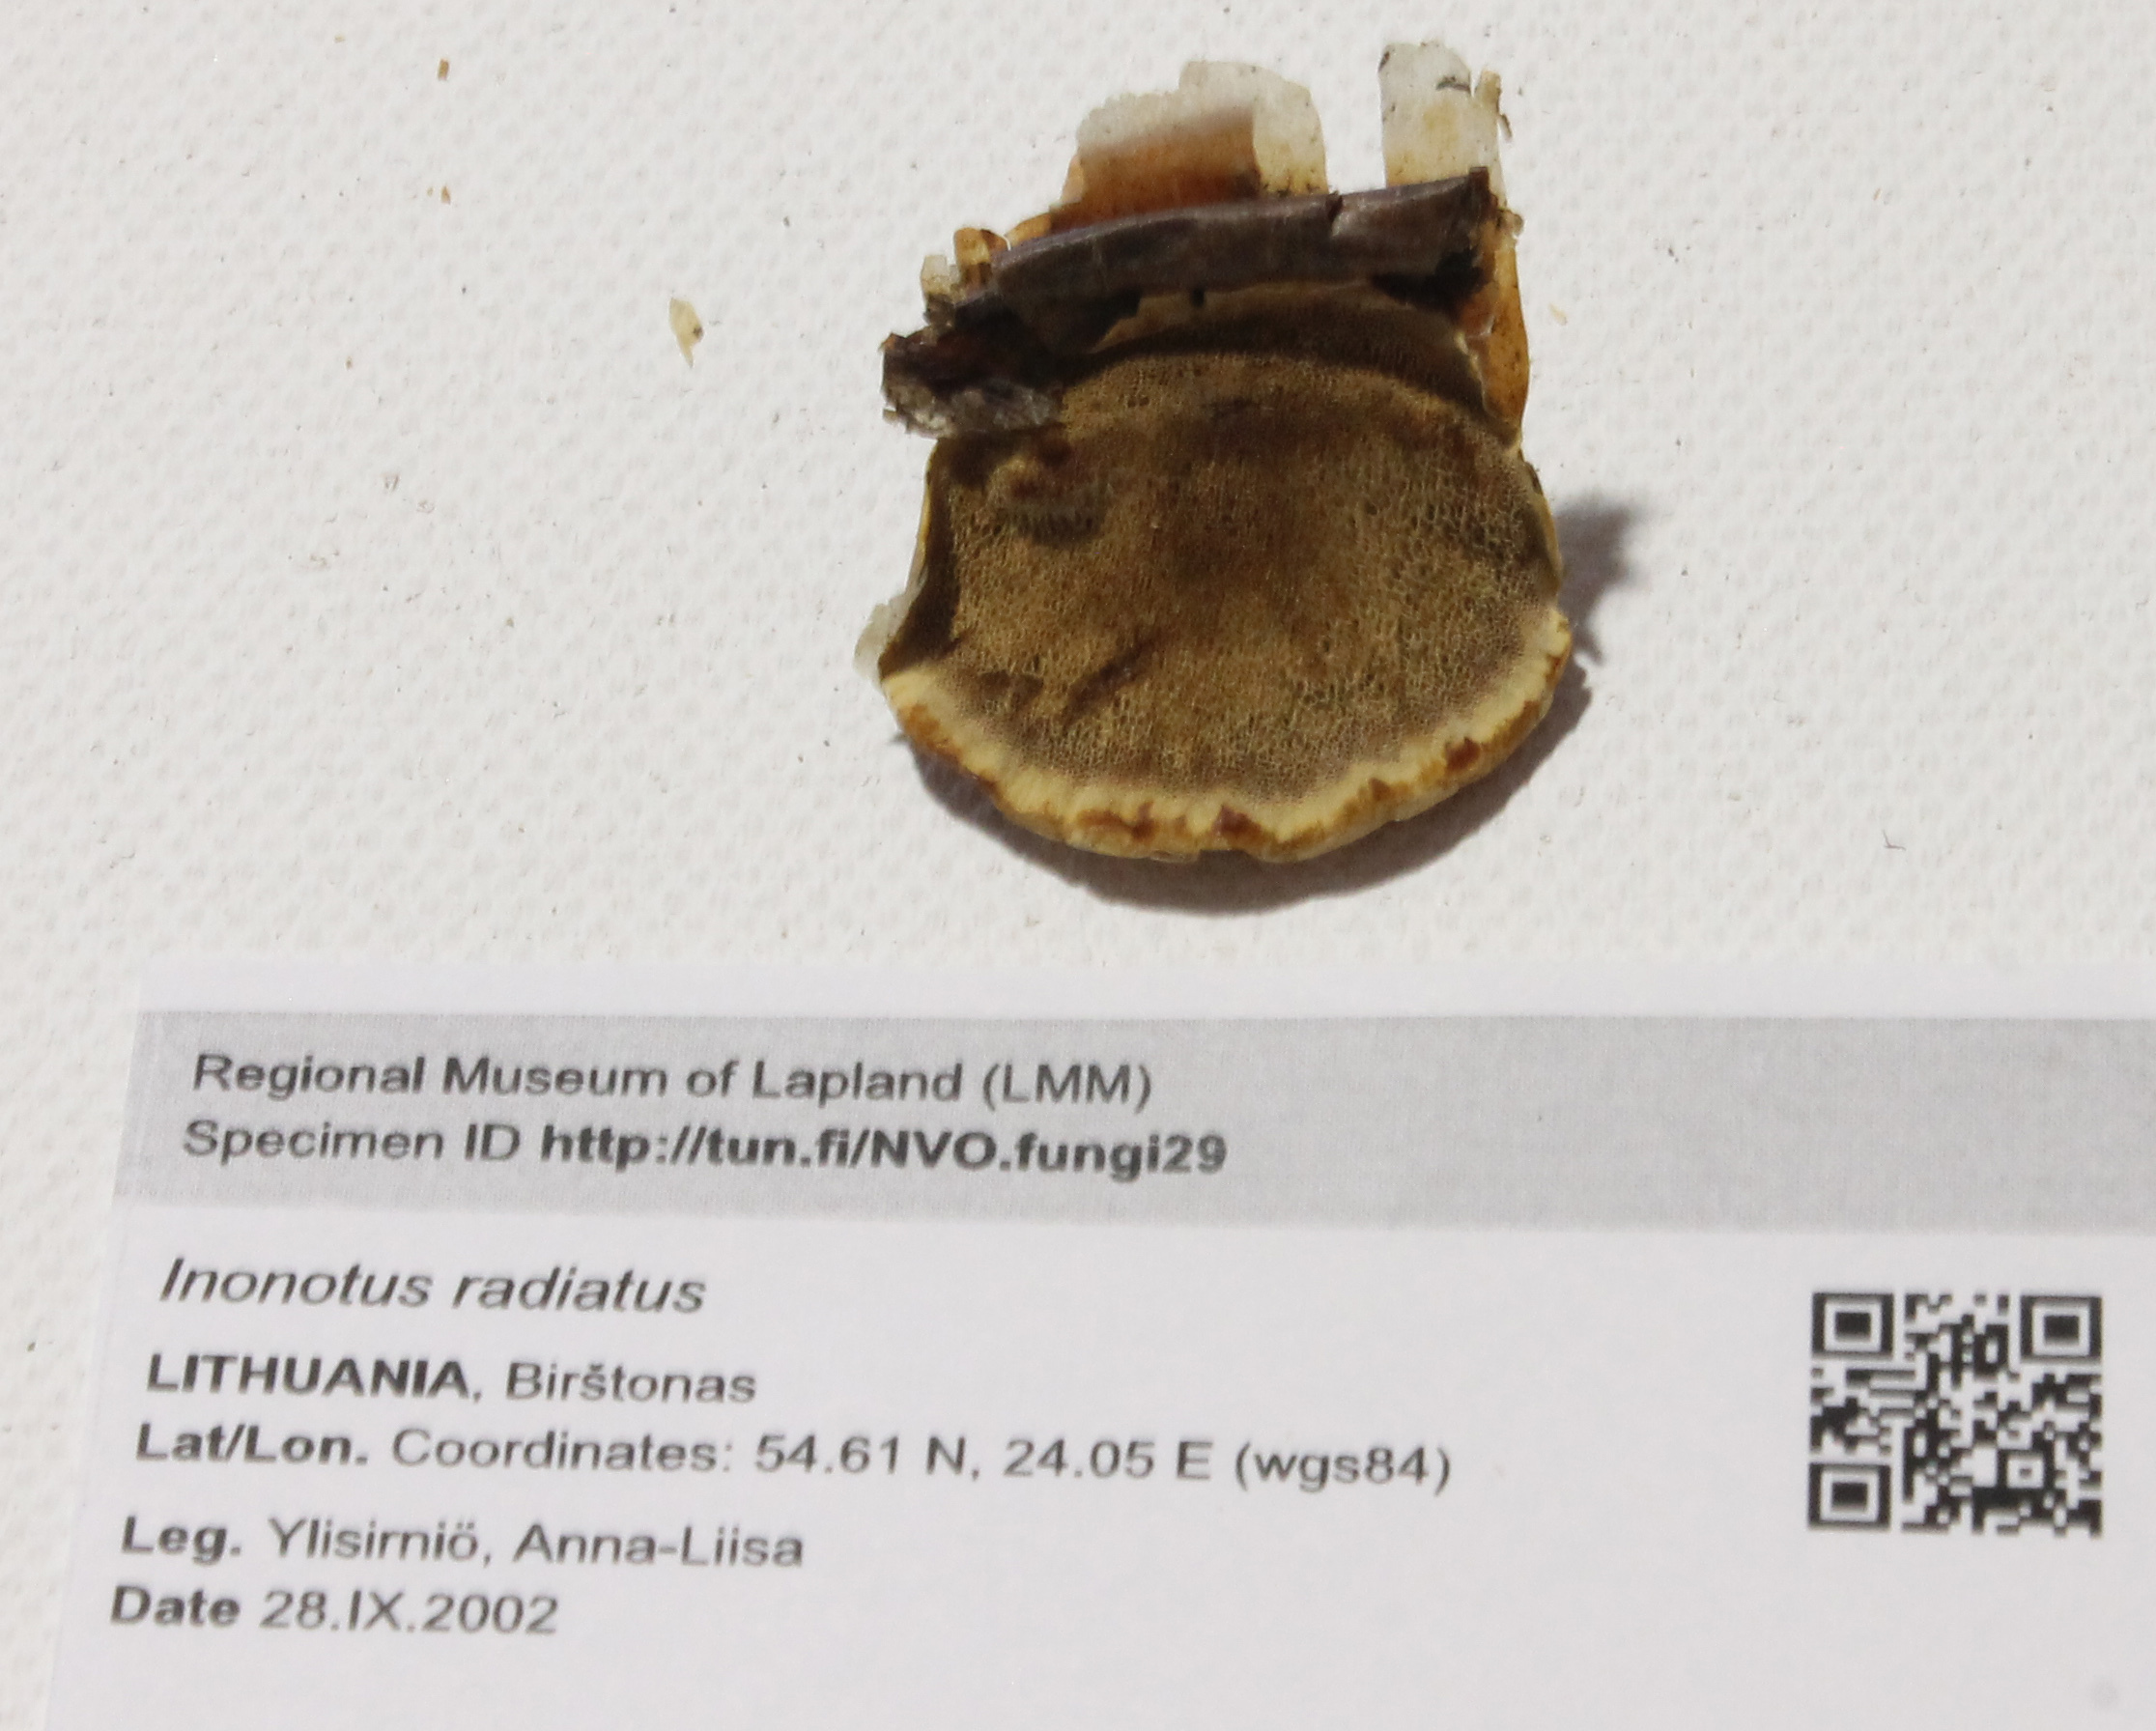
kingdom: Fungi
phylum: Basidiomycota
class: Agaricomycetes
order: Hymenochaetales
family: Hymenochaetaceae
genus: Xanthoporia
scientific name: Xanthoporia radiata
